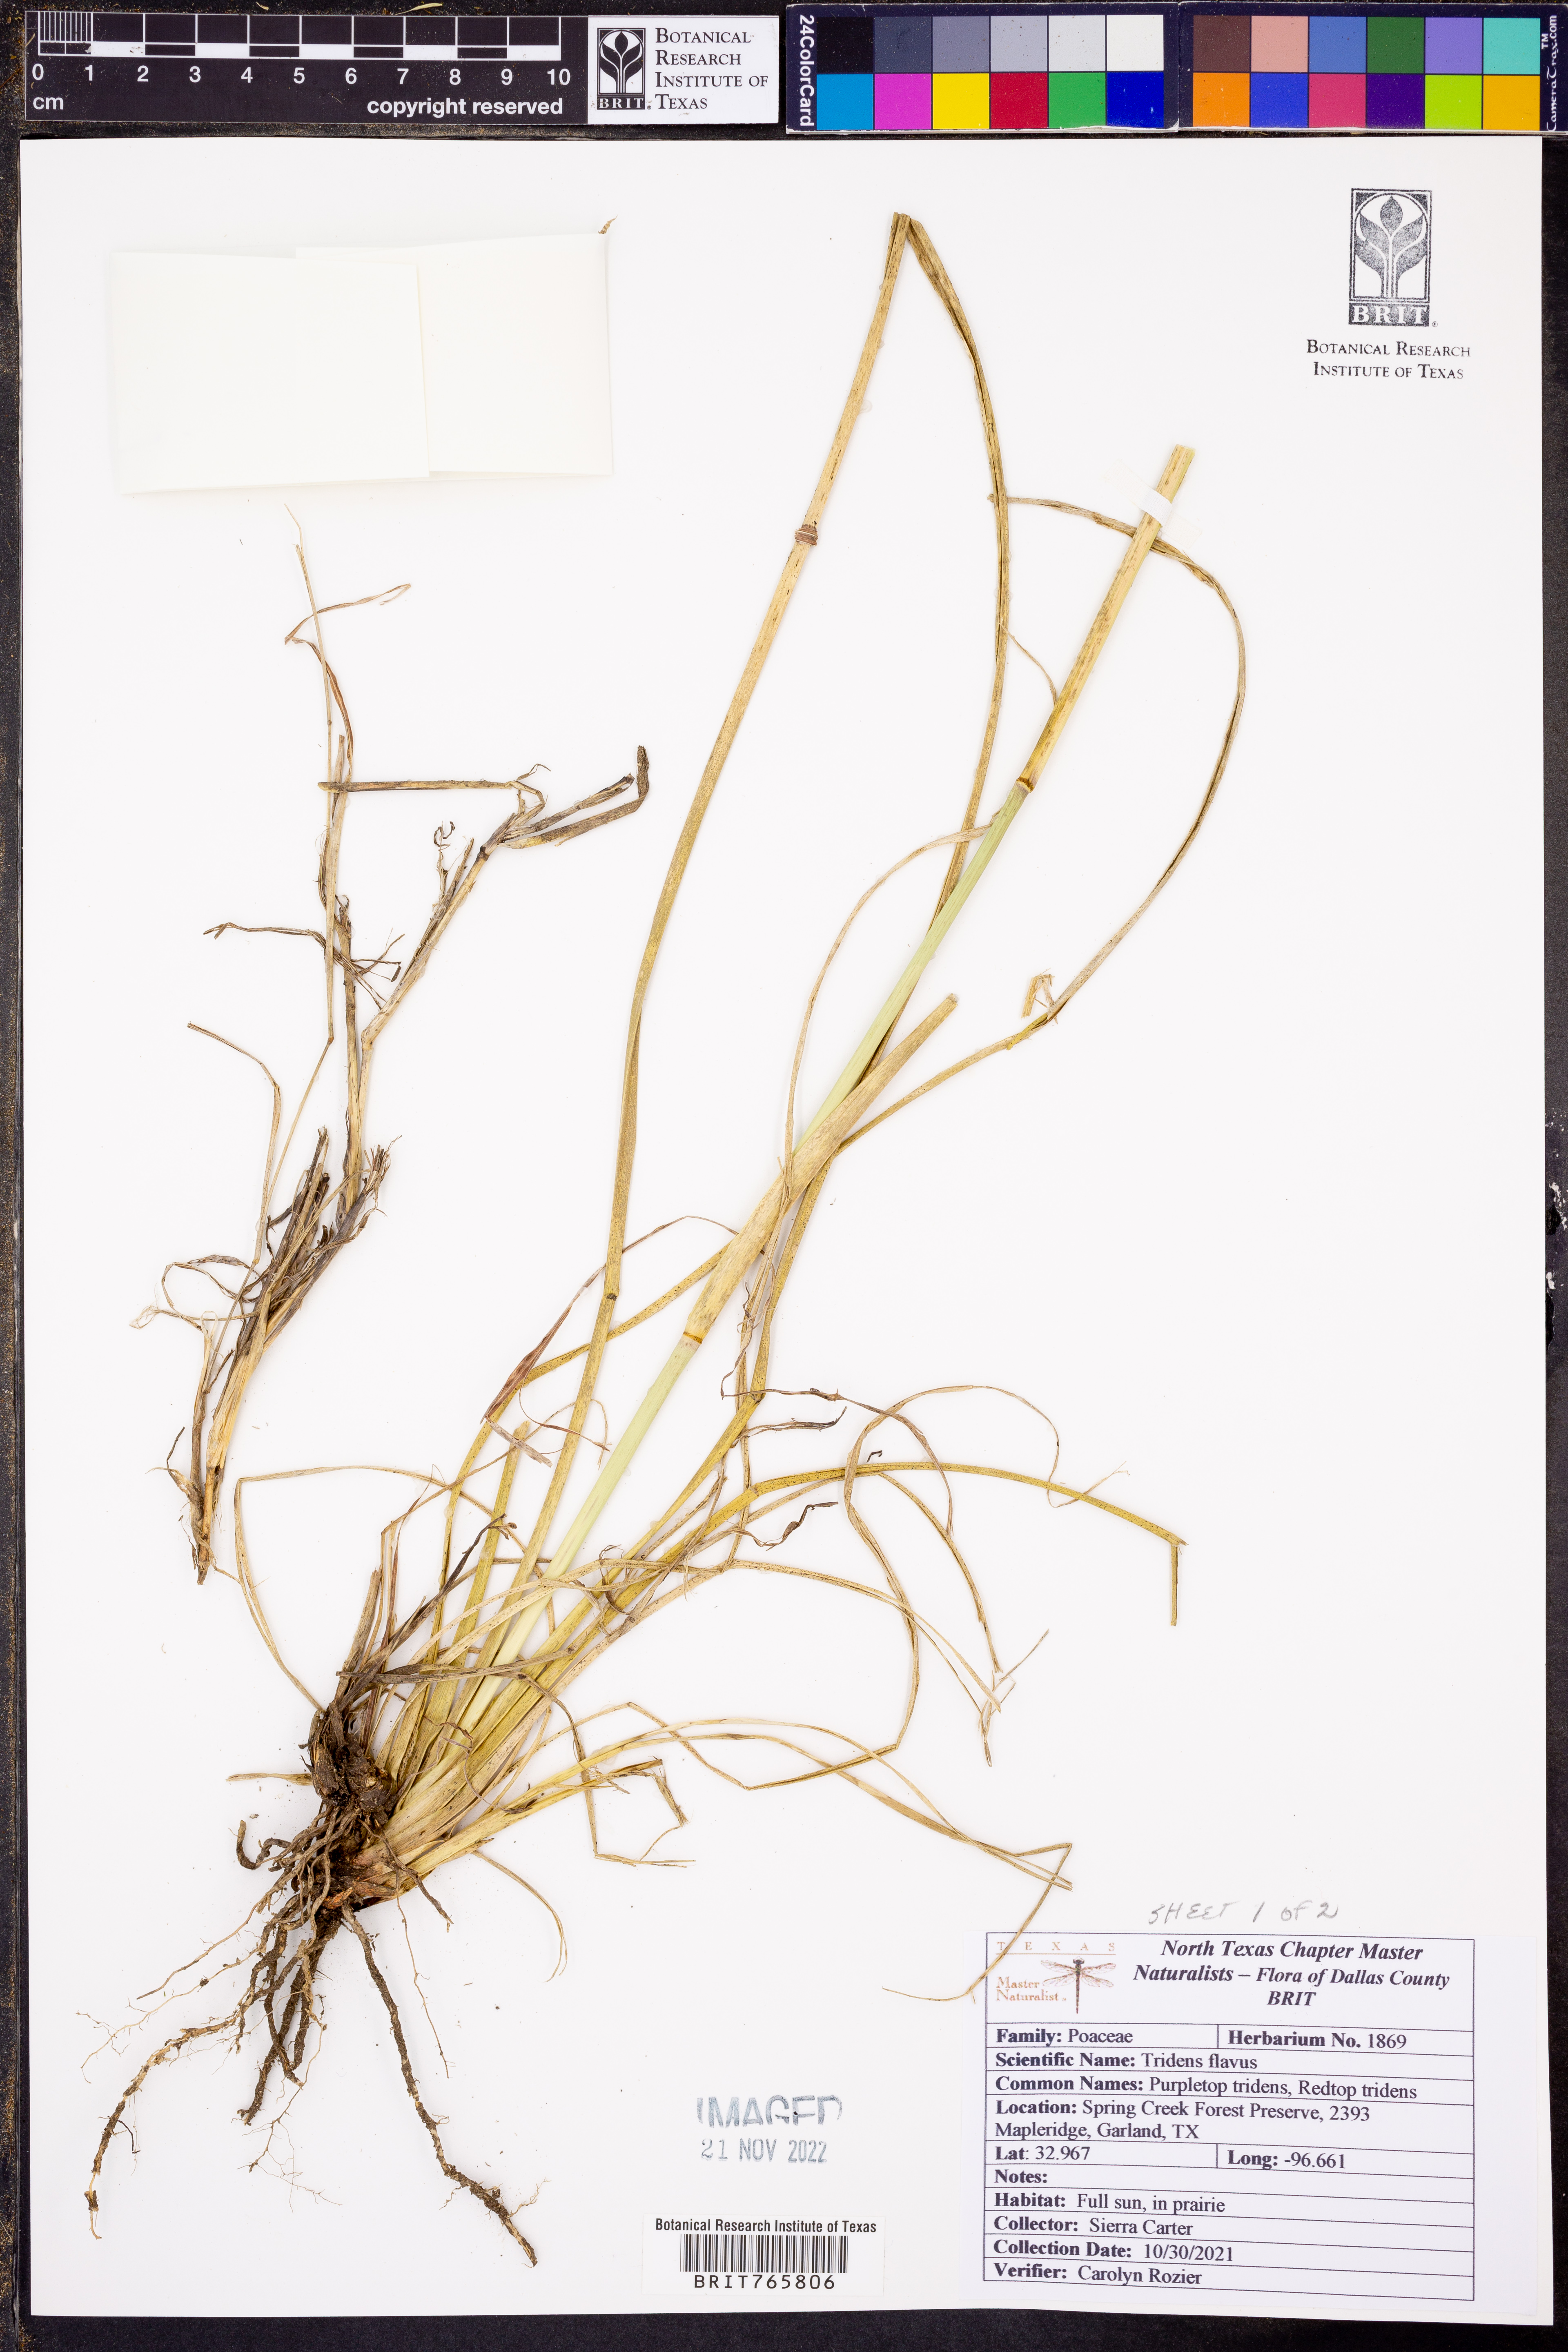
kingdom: Plantae
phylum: Tracheophyta
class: Liliopsida
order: Poales
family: Poaceae
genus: Tridens
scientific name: Tridens flavus
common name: Purpletop
